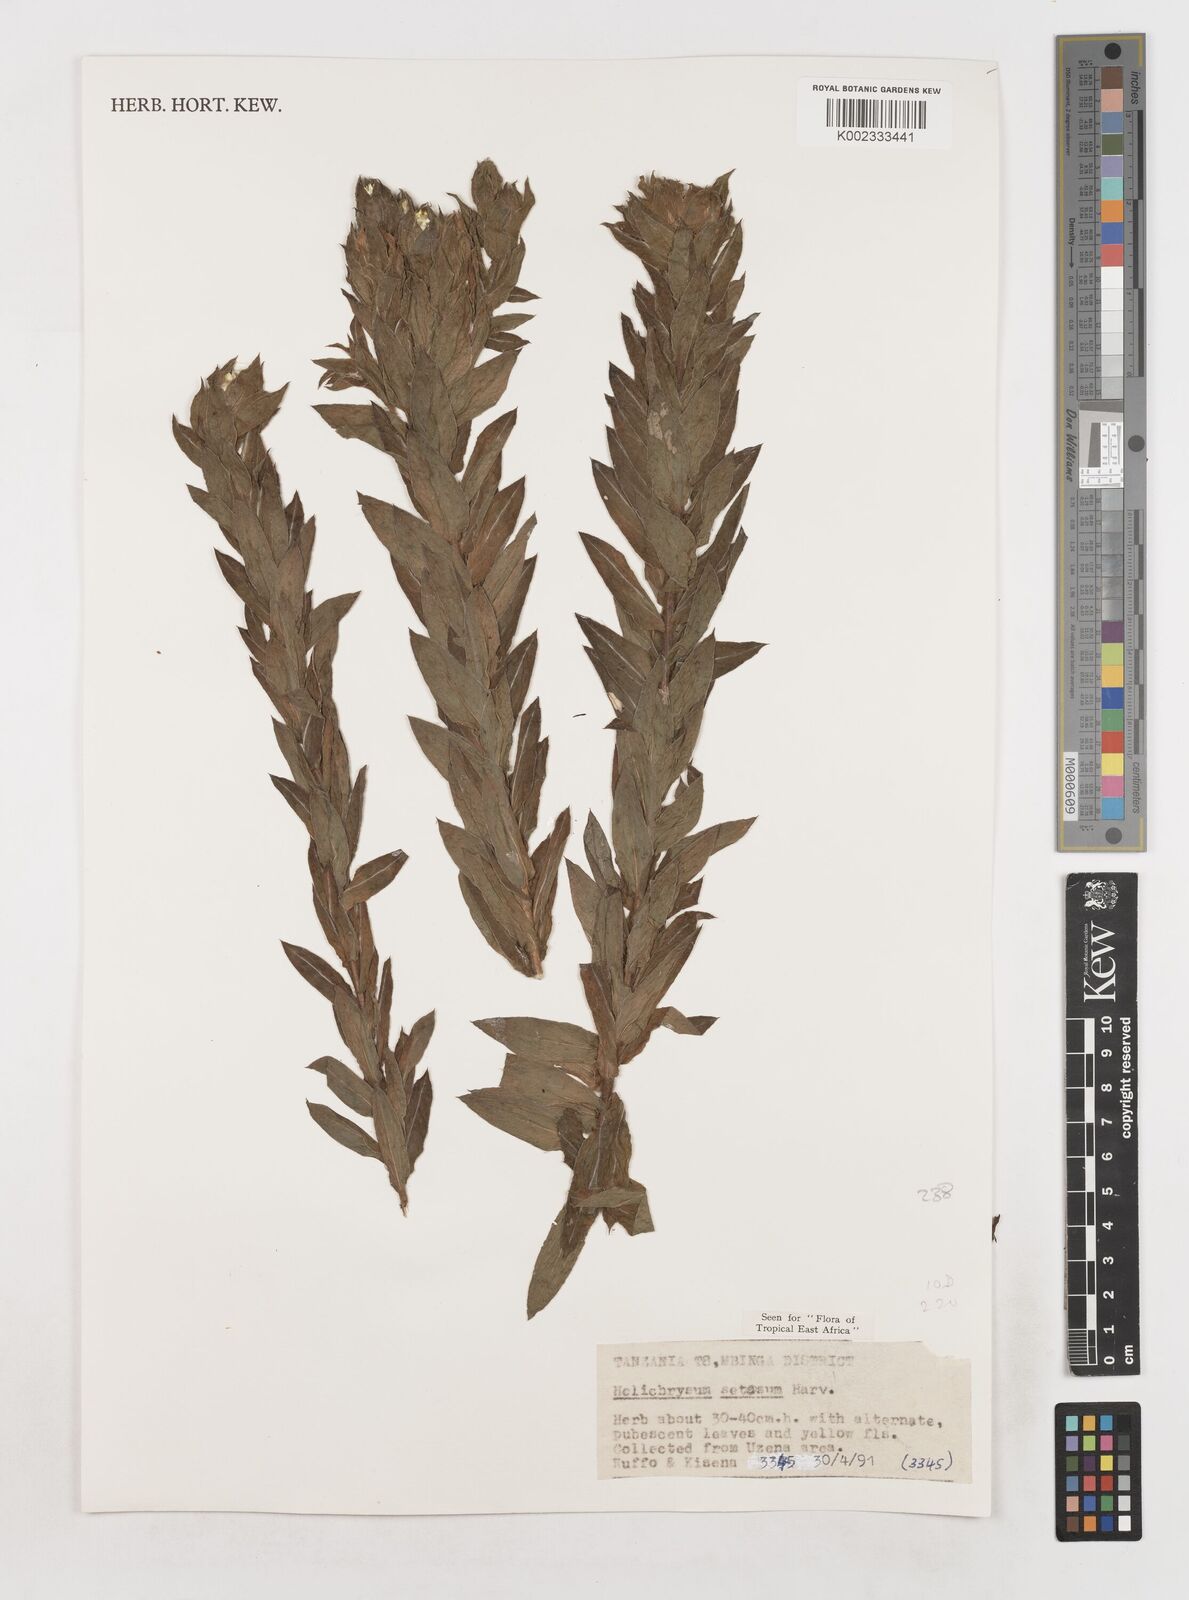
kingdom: Plantae
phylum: Tracheophyta
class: Magnoliopsida
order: Asterales
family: Asteraceae
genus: Helichrysum
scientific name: Helichrysum setosum
